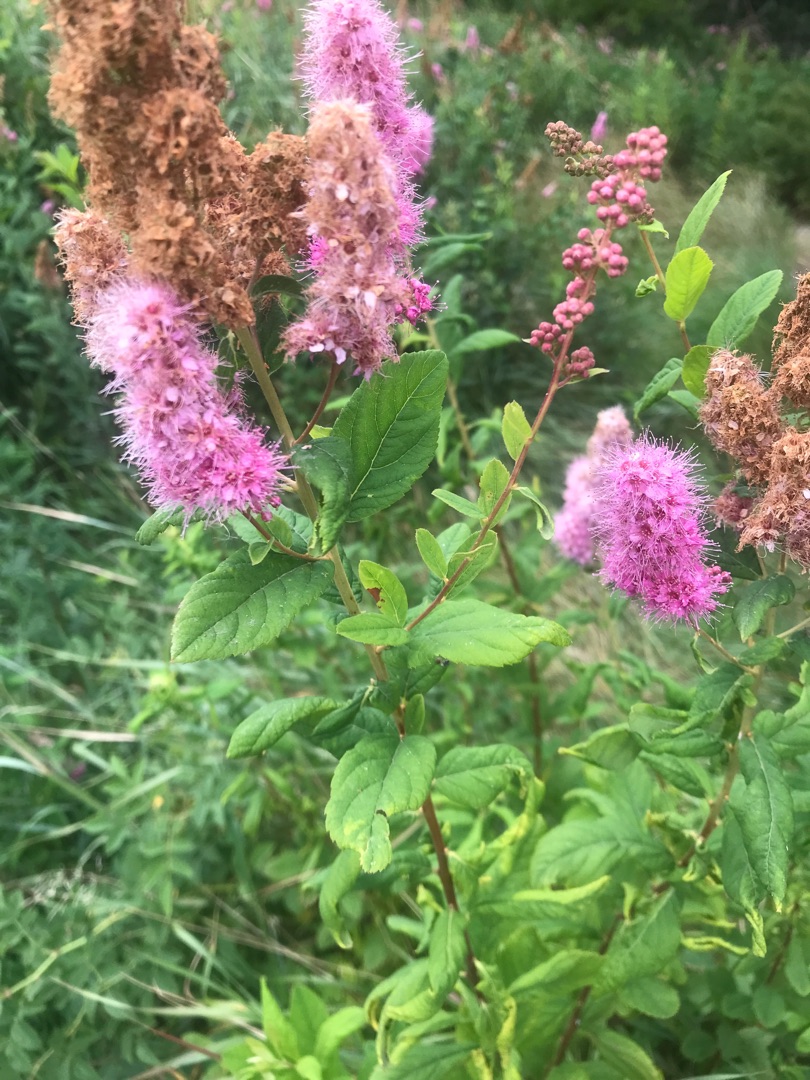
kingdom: Plantae
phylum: Tracheophyta
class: Magnoliopsida
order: Rosales
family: Rosaceae
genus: Spiraea
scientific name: Spiraea
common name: Spiræaslægten
